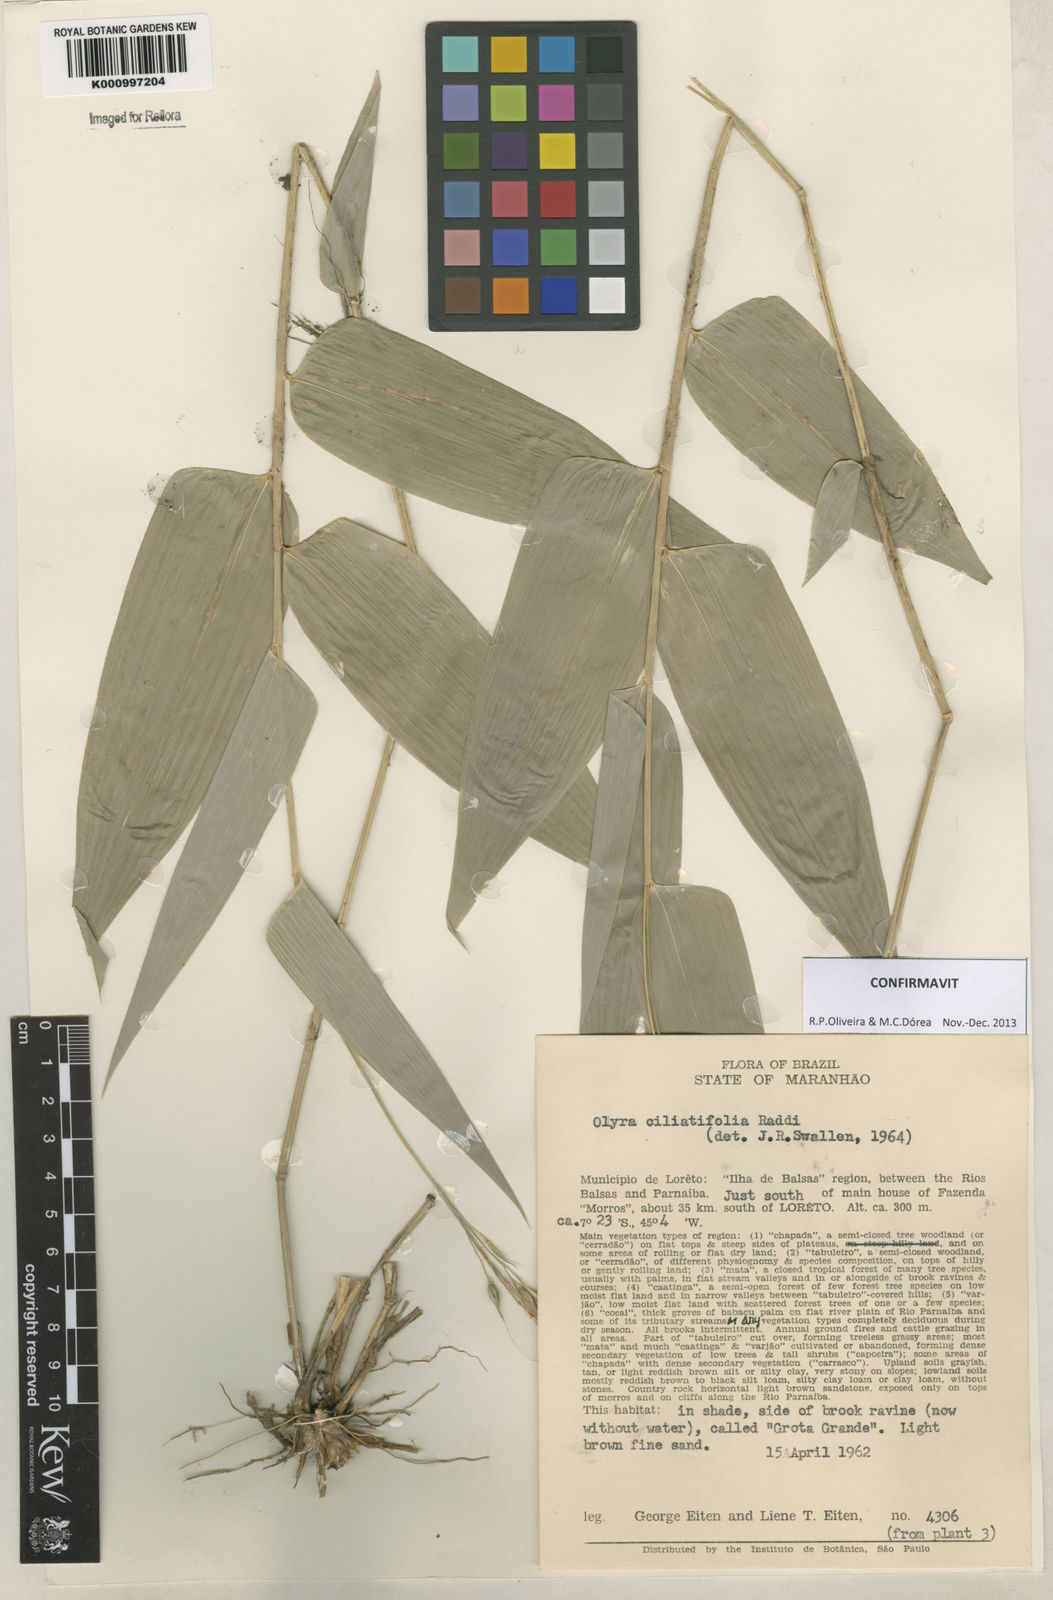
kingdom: Plantae
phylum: Tracheophyta
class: Liliopsida
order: Poales
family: Poaceae
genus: Olyra
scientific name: Olyra ciliatifolia
